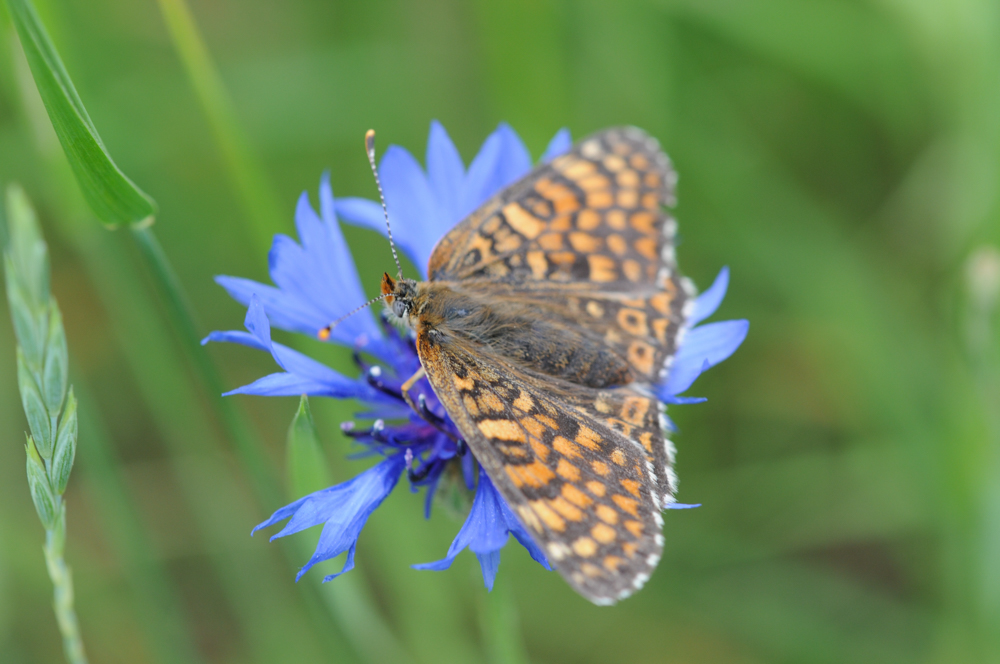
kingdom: Animalia
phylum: Arthropoda
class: Insecta
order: Lepidoptera
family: Nymphalidae
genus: Mellicta
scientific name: Mellicta athalia
